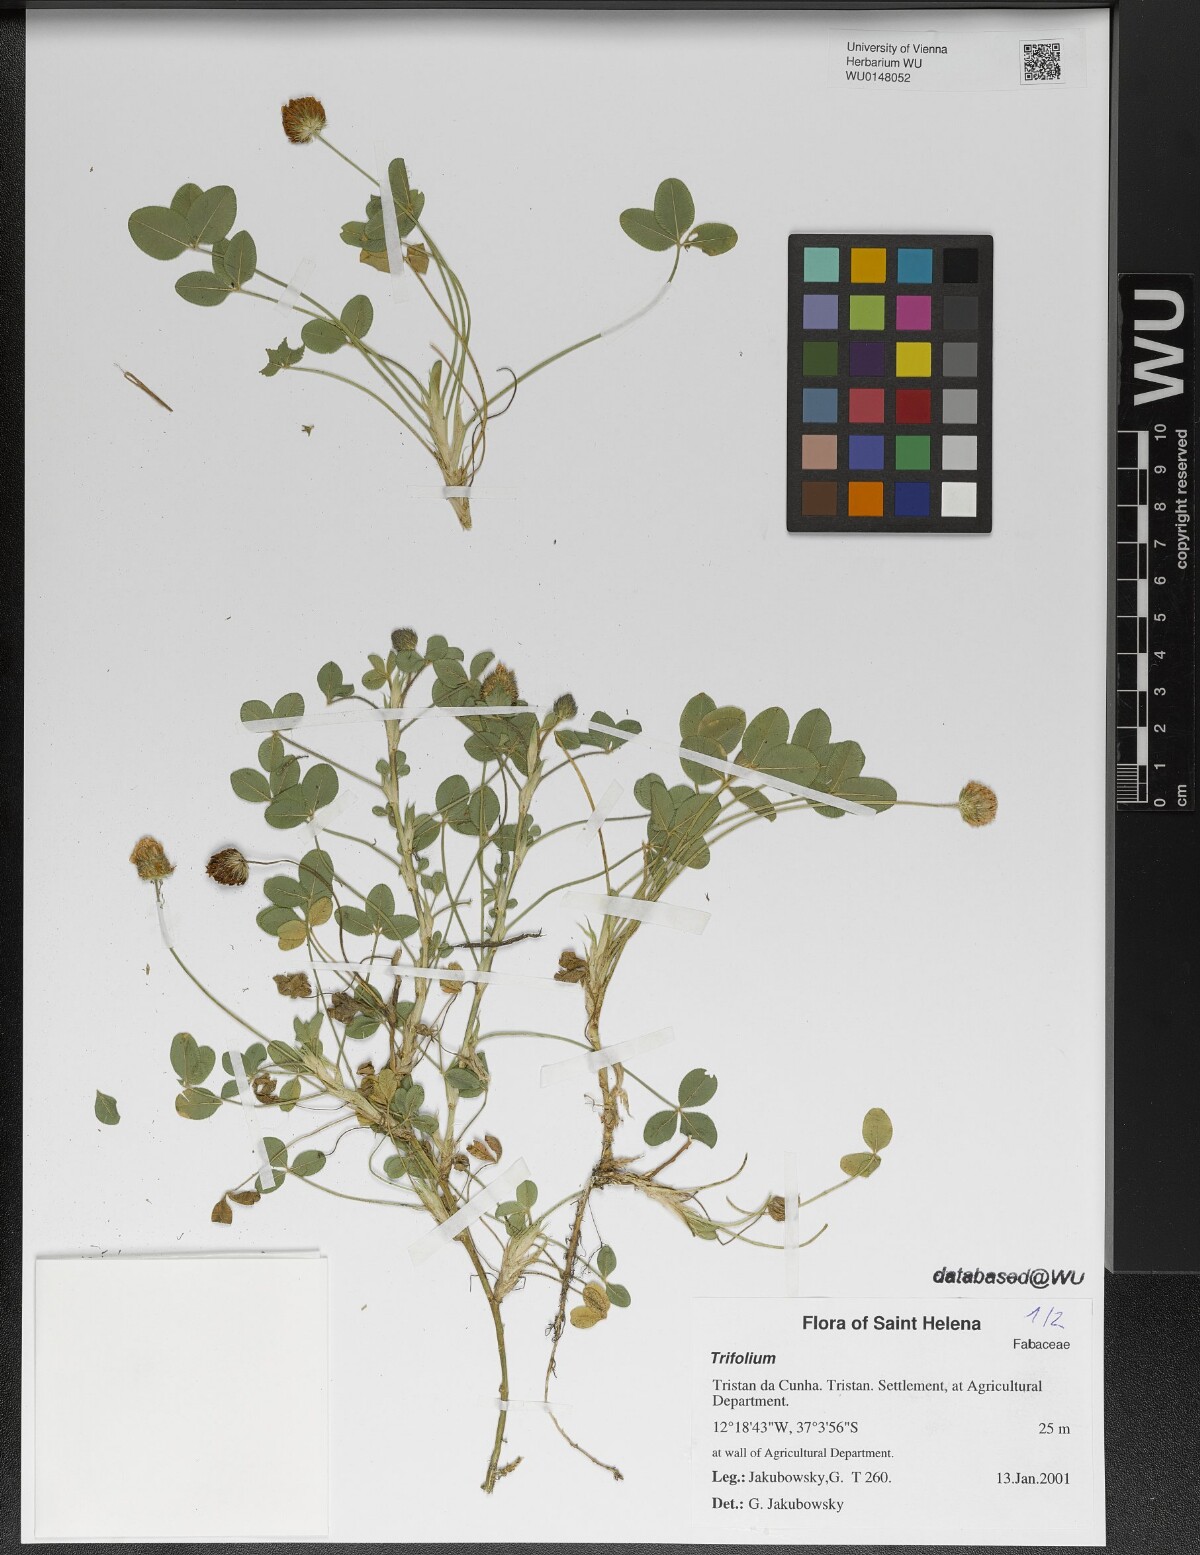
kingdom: Plantae
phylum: Tracheophyta
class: Magnoliopsida
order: Fabales
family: Fabaceae
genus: Trifolium
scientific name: Trifolium
